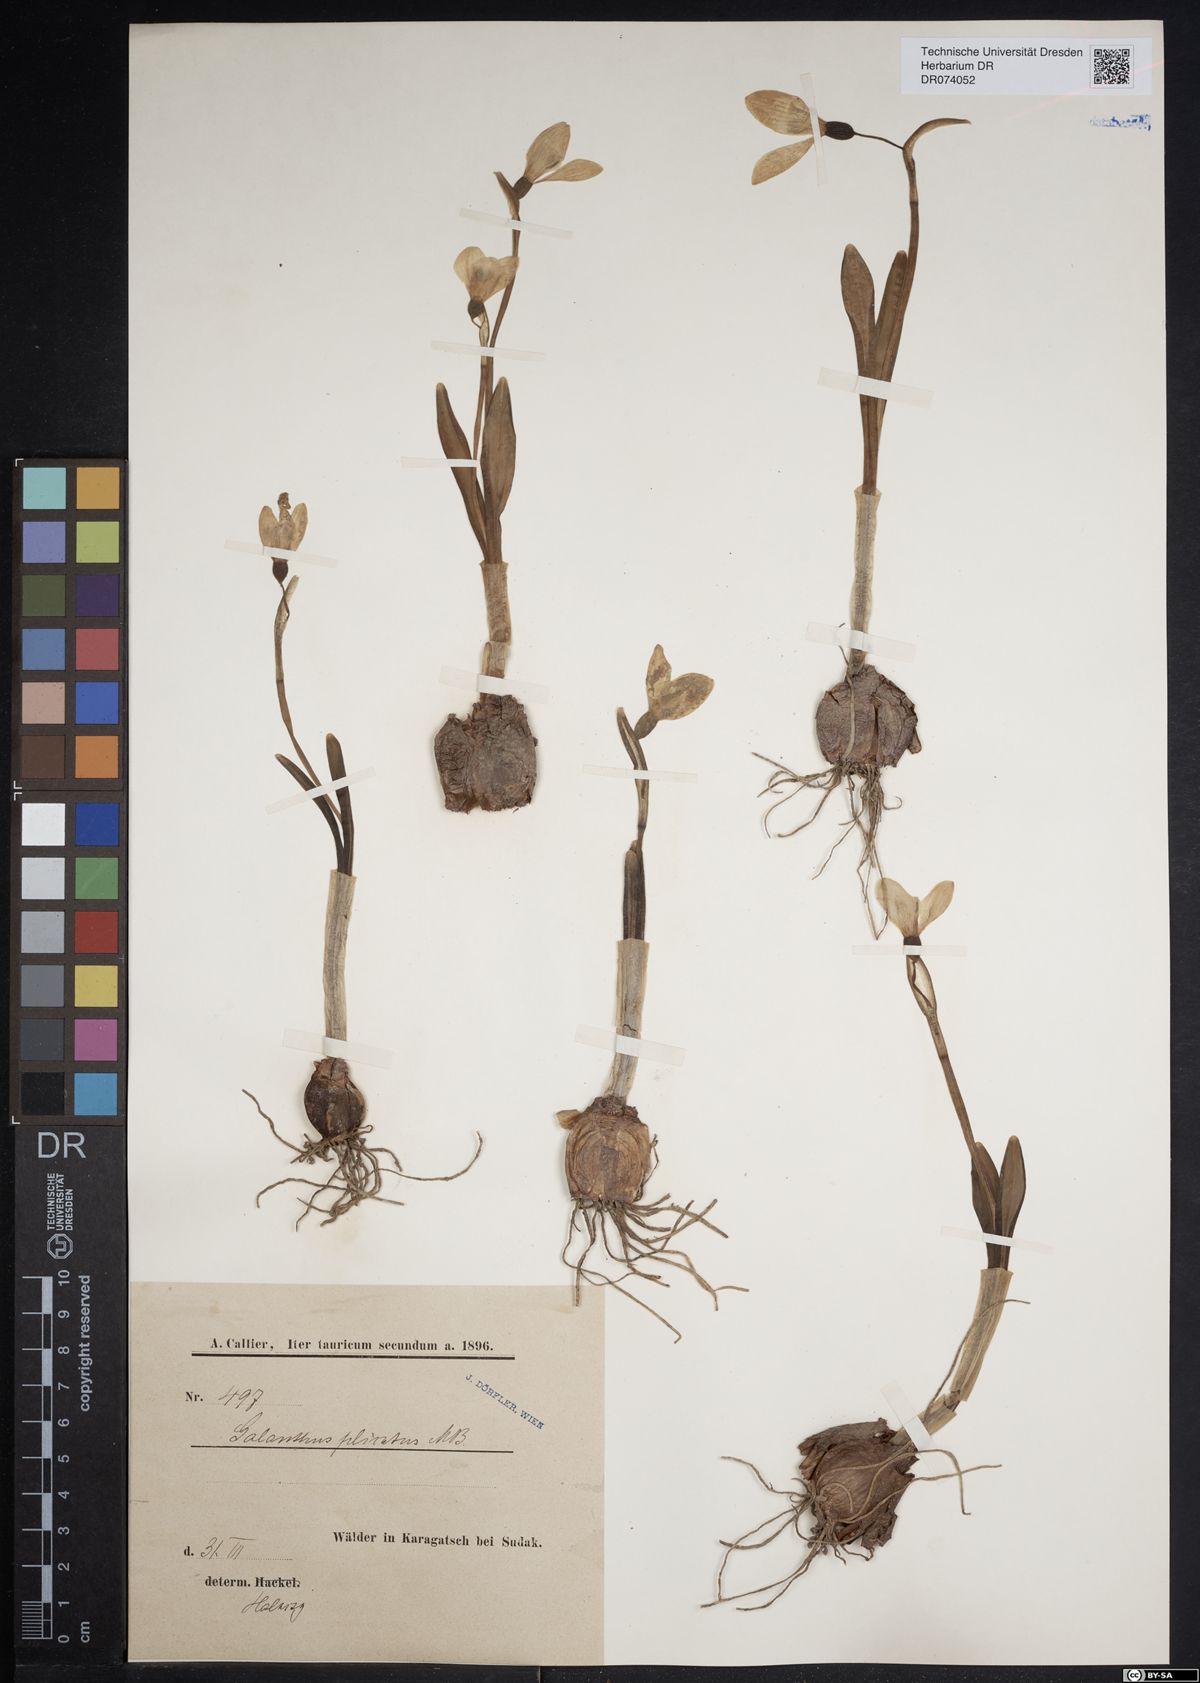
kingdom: Plantae
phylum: Tracheophyta
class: Liliopsida
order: Asparagales
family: Amaryllidaceae
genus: Galanthus
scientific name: Galanthus plicatus
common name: Pleated snowdrop
